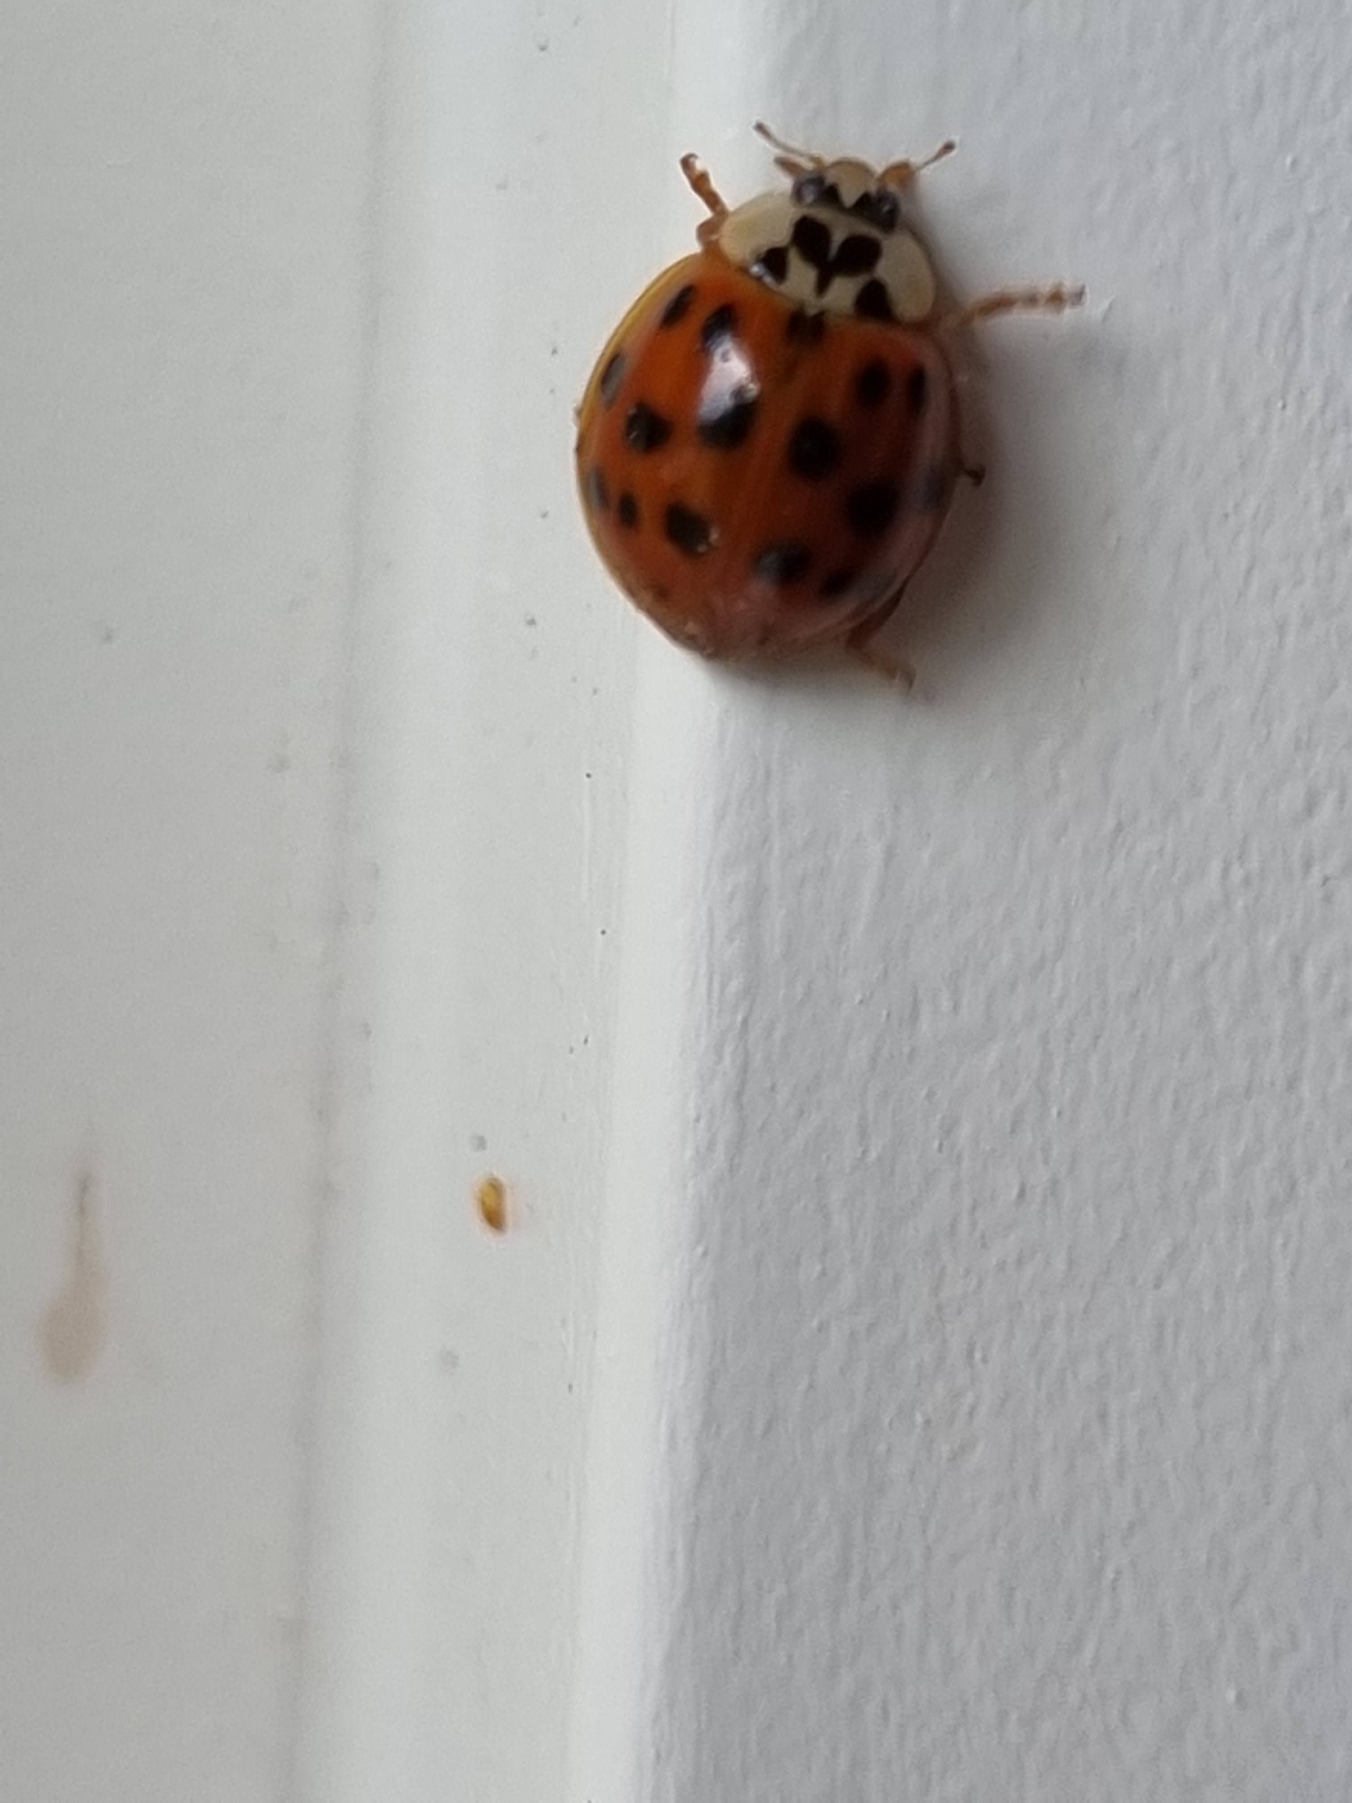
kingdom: Animalia
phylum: Arthropoda
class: Insecta
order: Coleoptera
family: Coccinellidae
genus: Harmonia
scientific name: Harmonia axyridis
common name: Harlekinmariehøne
